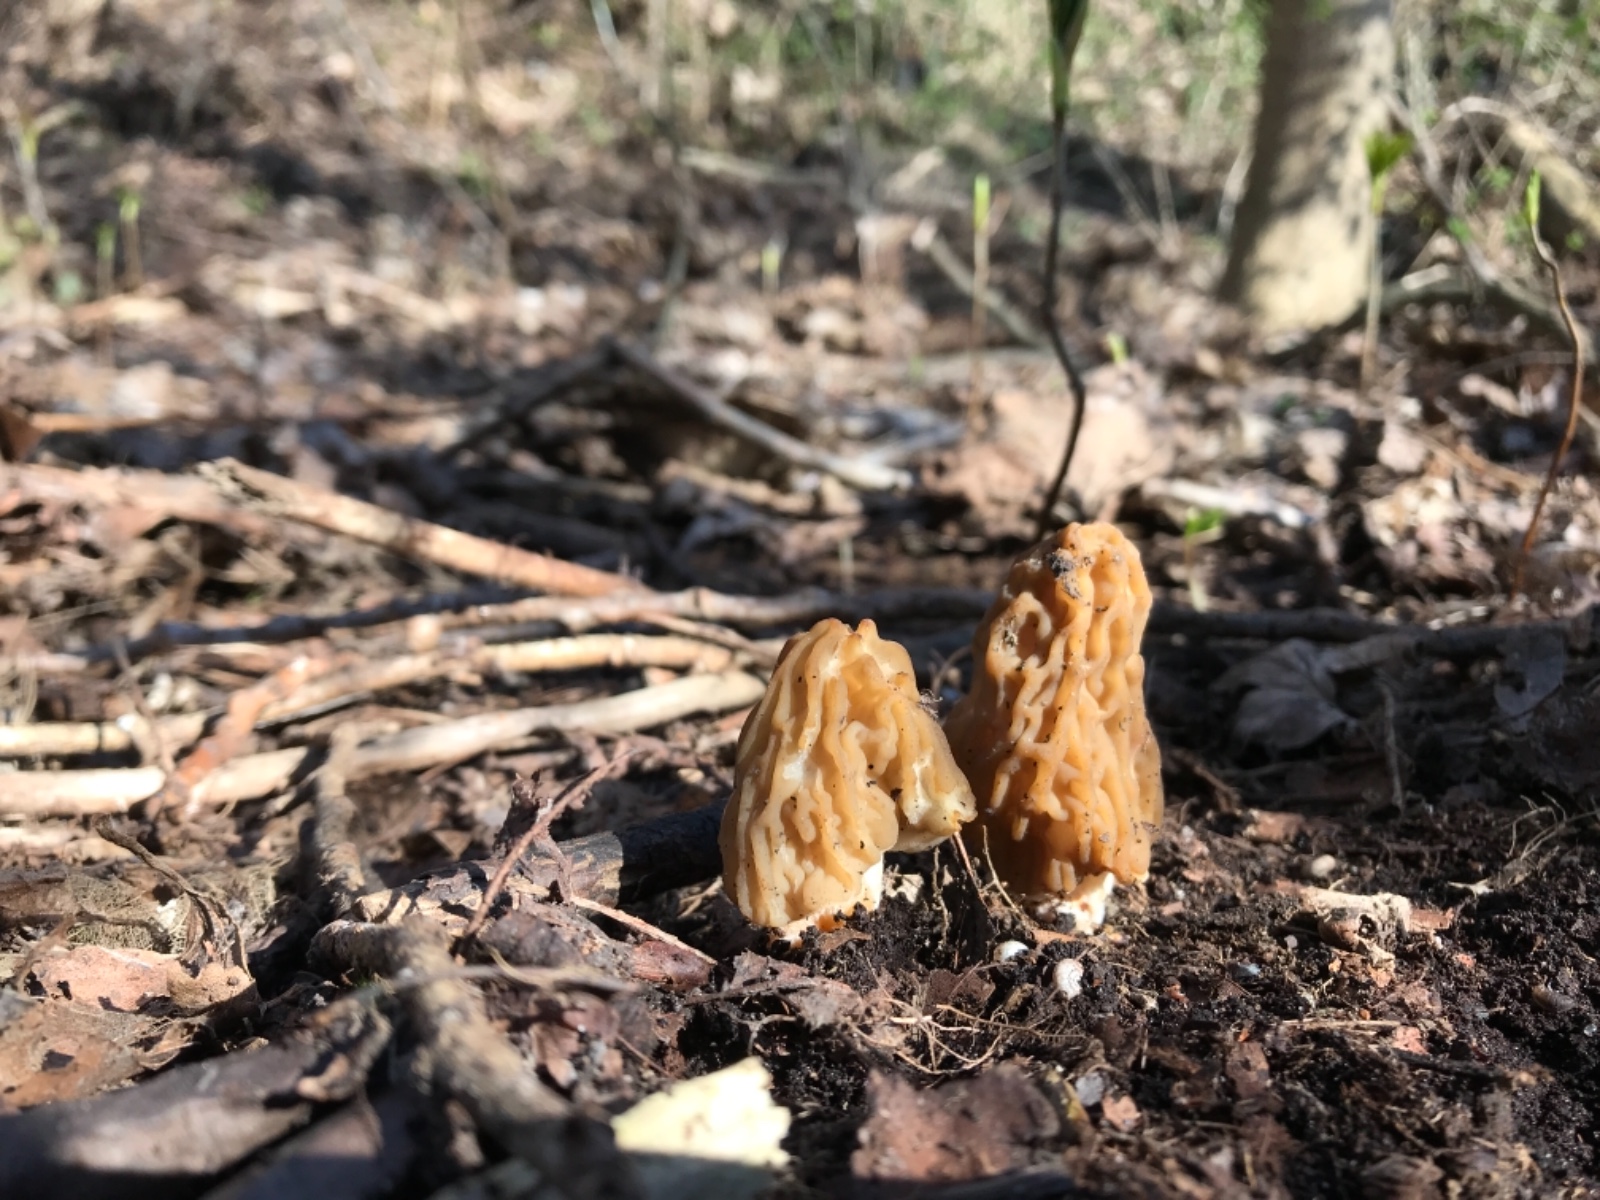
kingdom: Fungi
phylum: Ascomycota
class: Pezizomycetes
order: Pezizales
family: Morchellaceae
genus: Verpa
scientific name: Verpa bohemica
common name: rynket klokkemorkel
